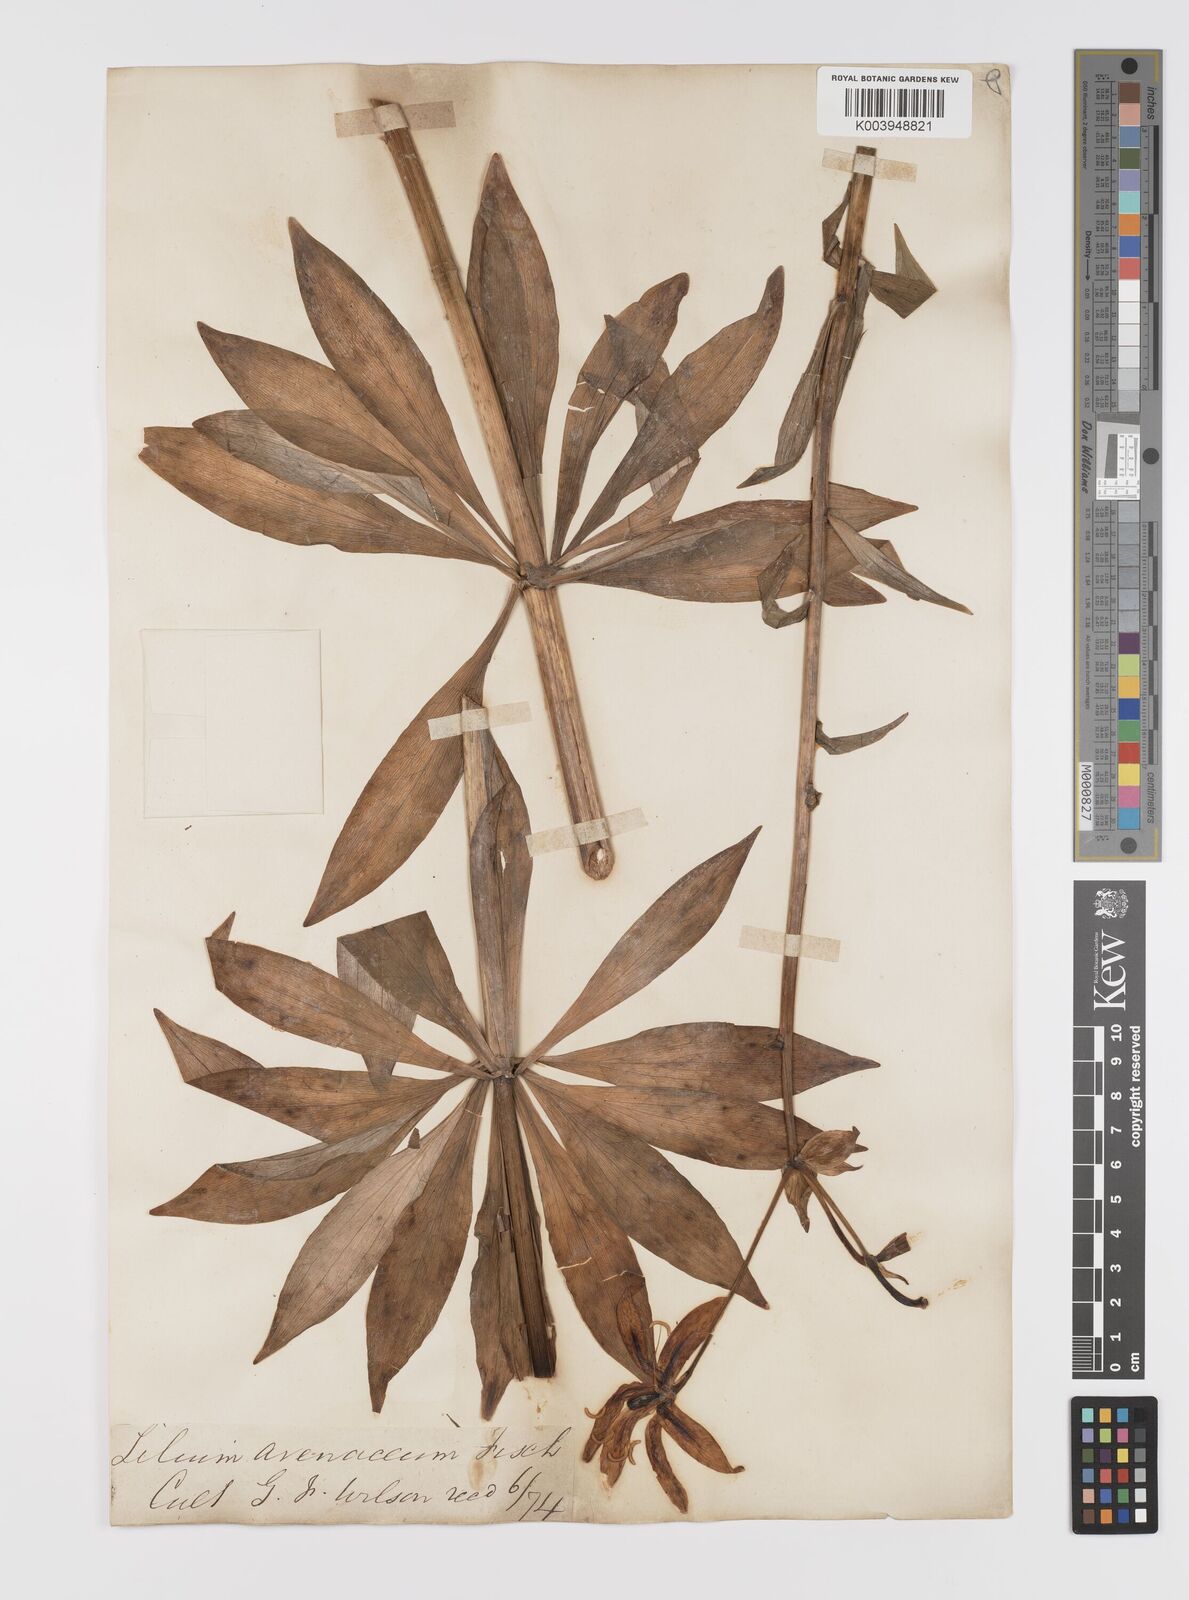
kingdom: Plantae
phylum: Tracheophyta
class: Liliopsida
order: Liliales
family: Liliaceae
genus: Lilium
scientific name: Lilium hansonii
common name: Hanson's lily
